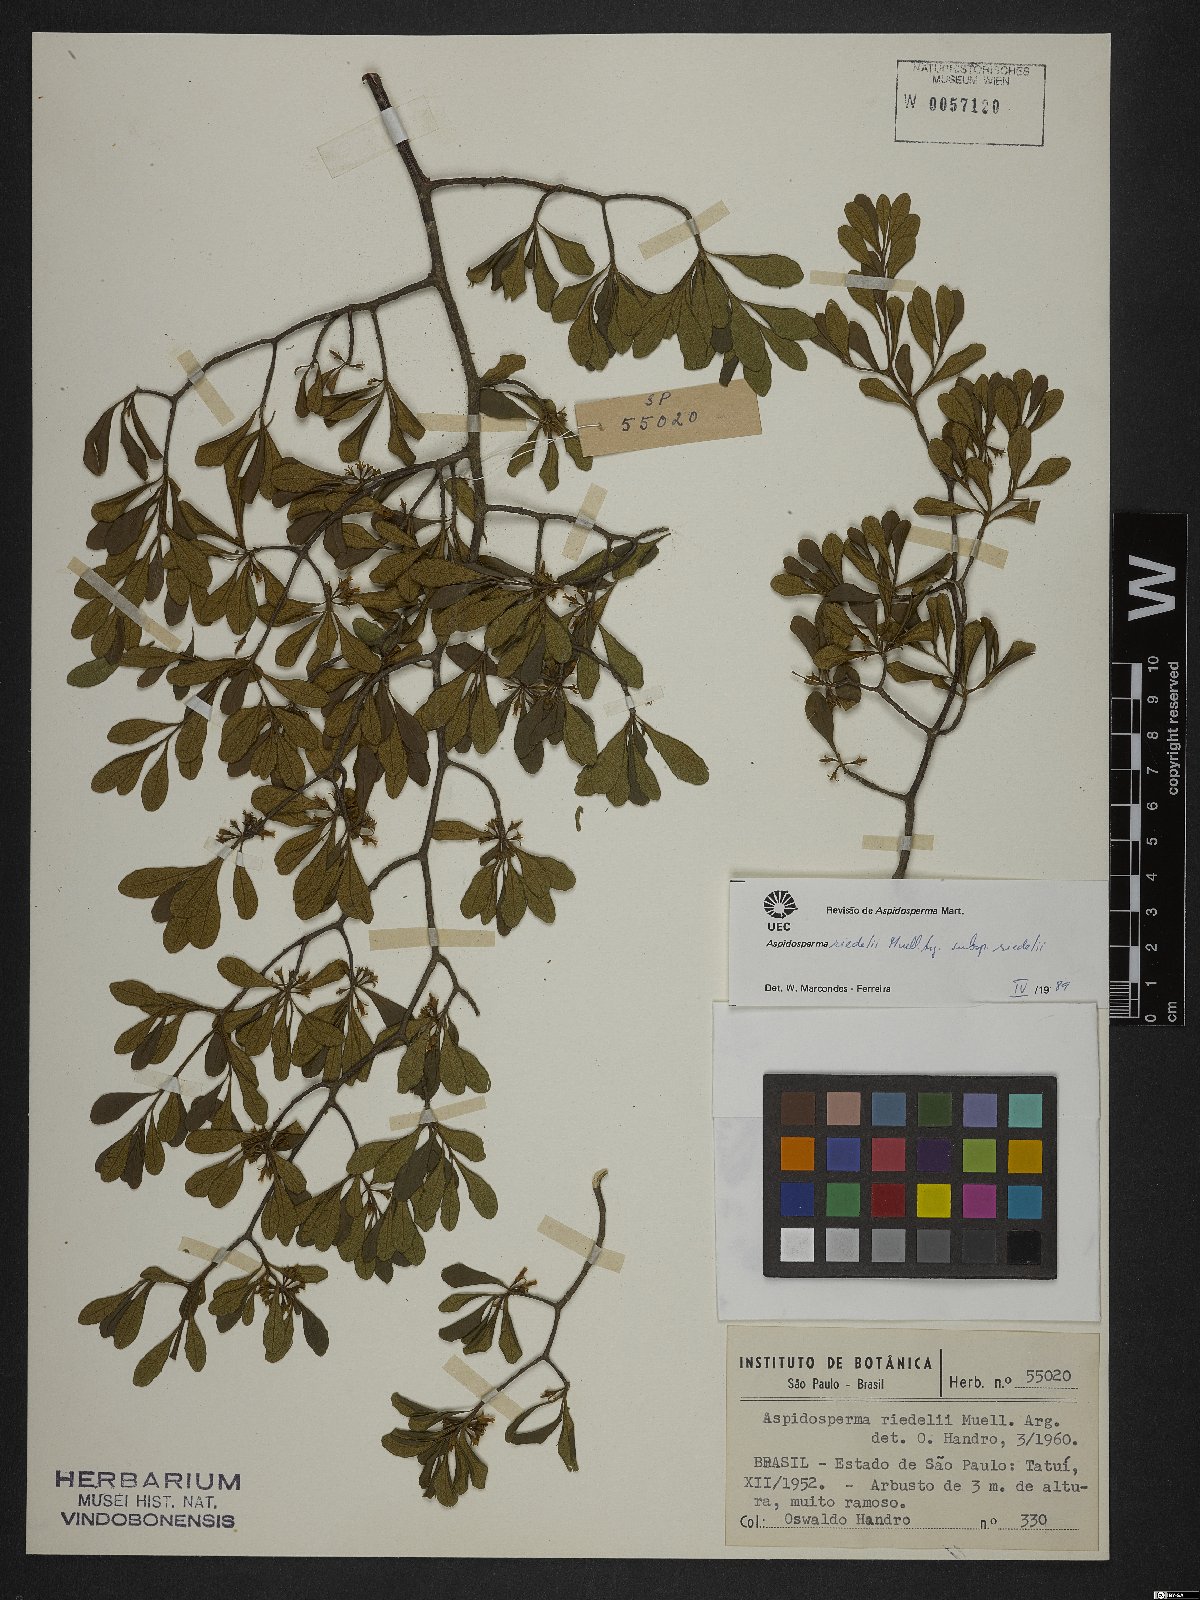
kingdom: Plantae
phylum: Tracheophyta
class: Magnoliopsida
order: Gentianales
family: Apocynaceae
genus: Aspidosperma
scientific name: Aspidosperma riedelii
